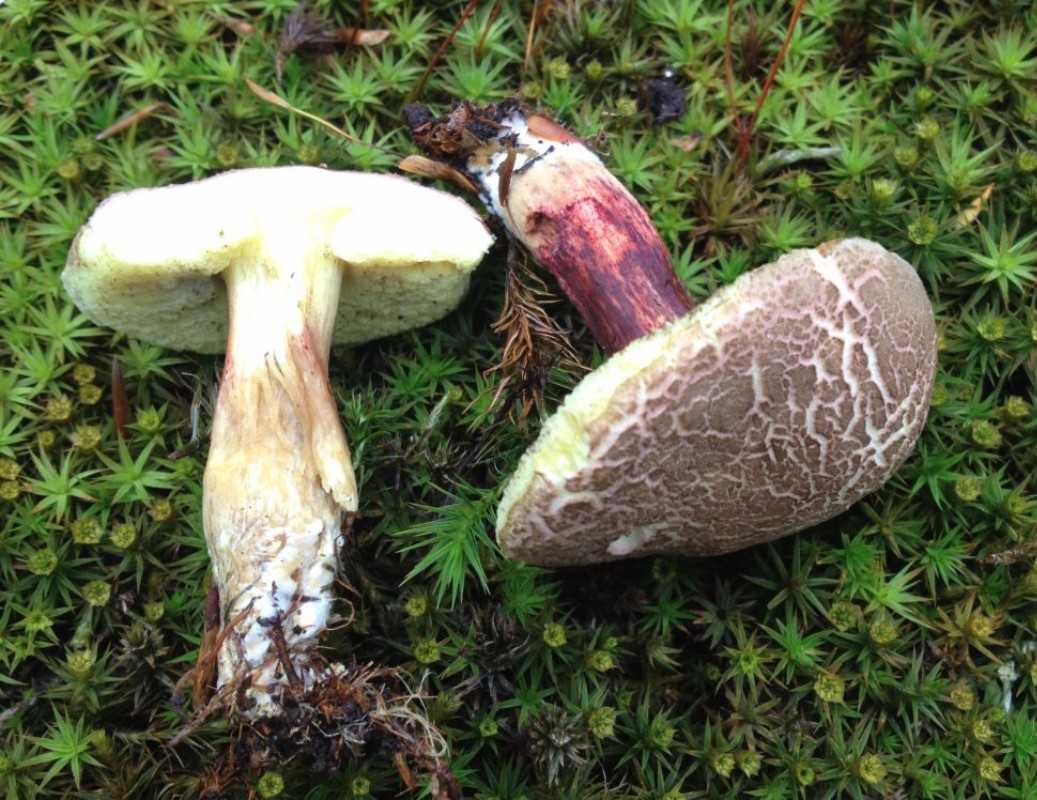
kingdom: Fungi
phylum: Basidiomycota
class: Agaricomycetes
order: Boletales
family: Boletaceae
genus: Xerocomellus
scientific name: Xerocomellus chrysenteron
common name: rødsprukken rørhat
